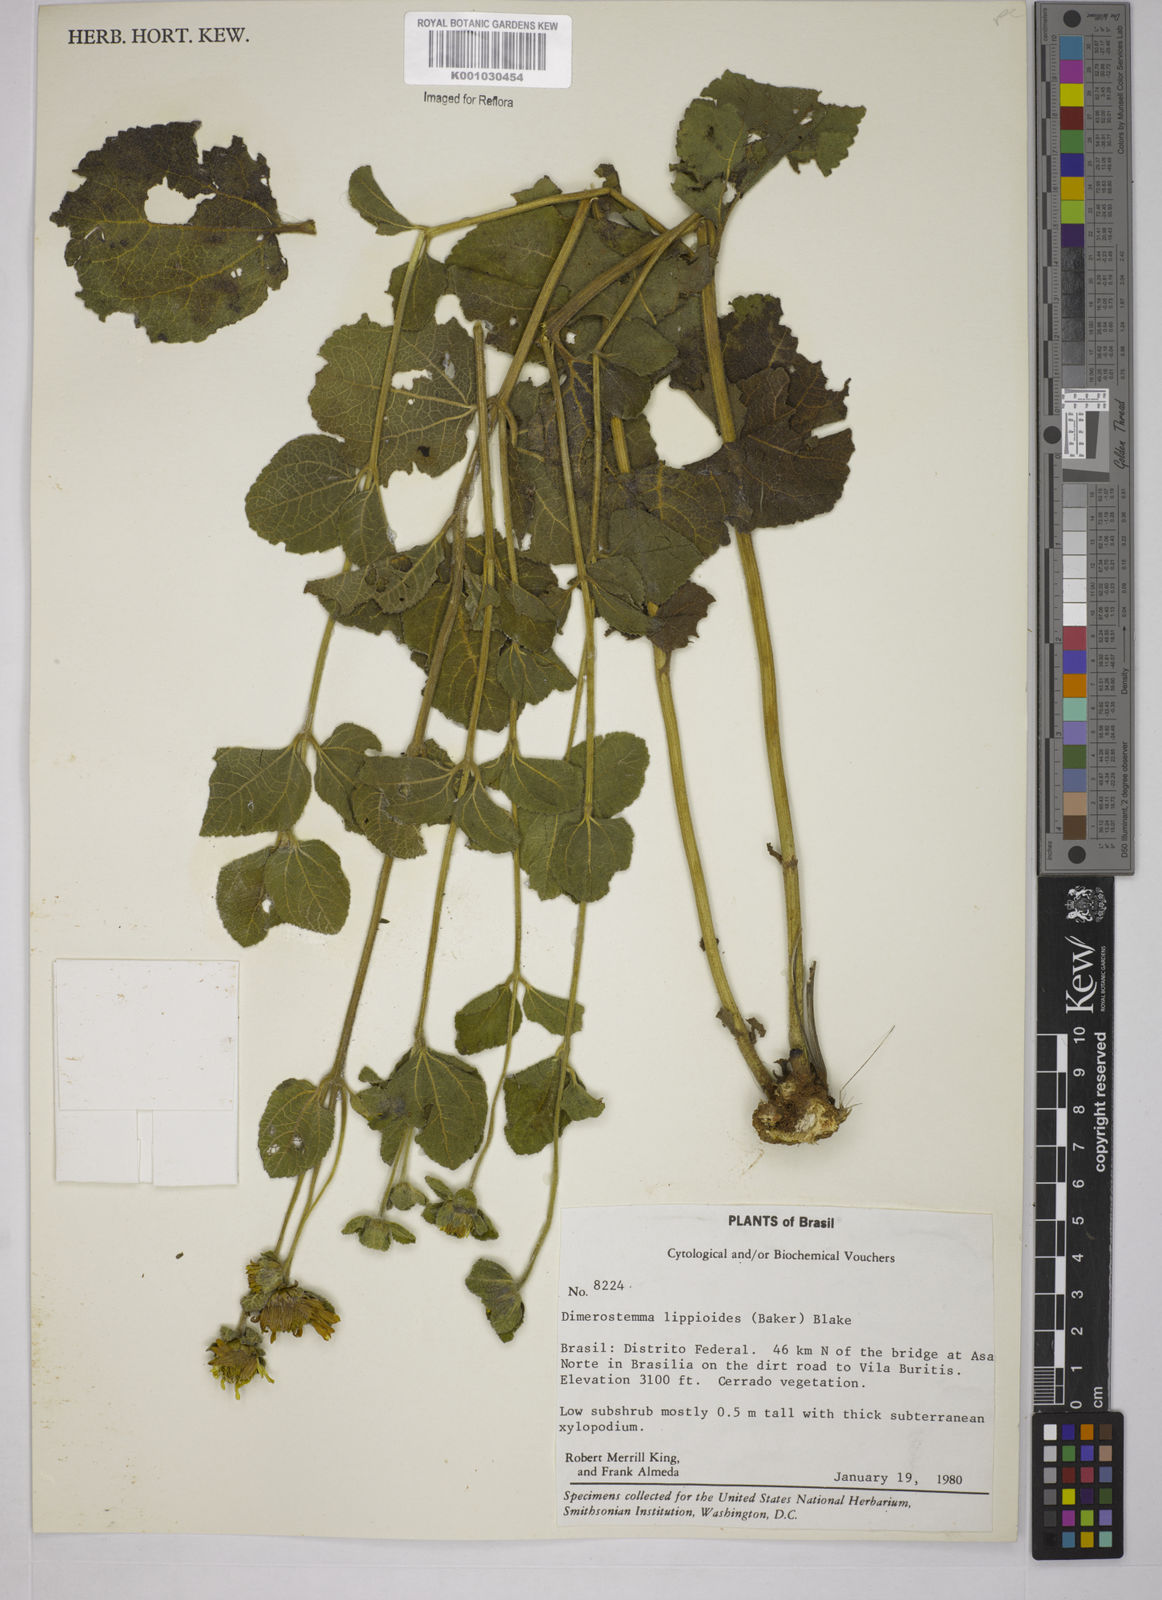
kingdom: Plantae
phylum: Tracheophyta
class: Magnoliopsida
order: Asterales
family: Asteraceae
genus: Dimerostemma
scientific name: Dimerostemma brasilianum
